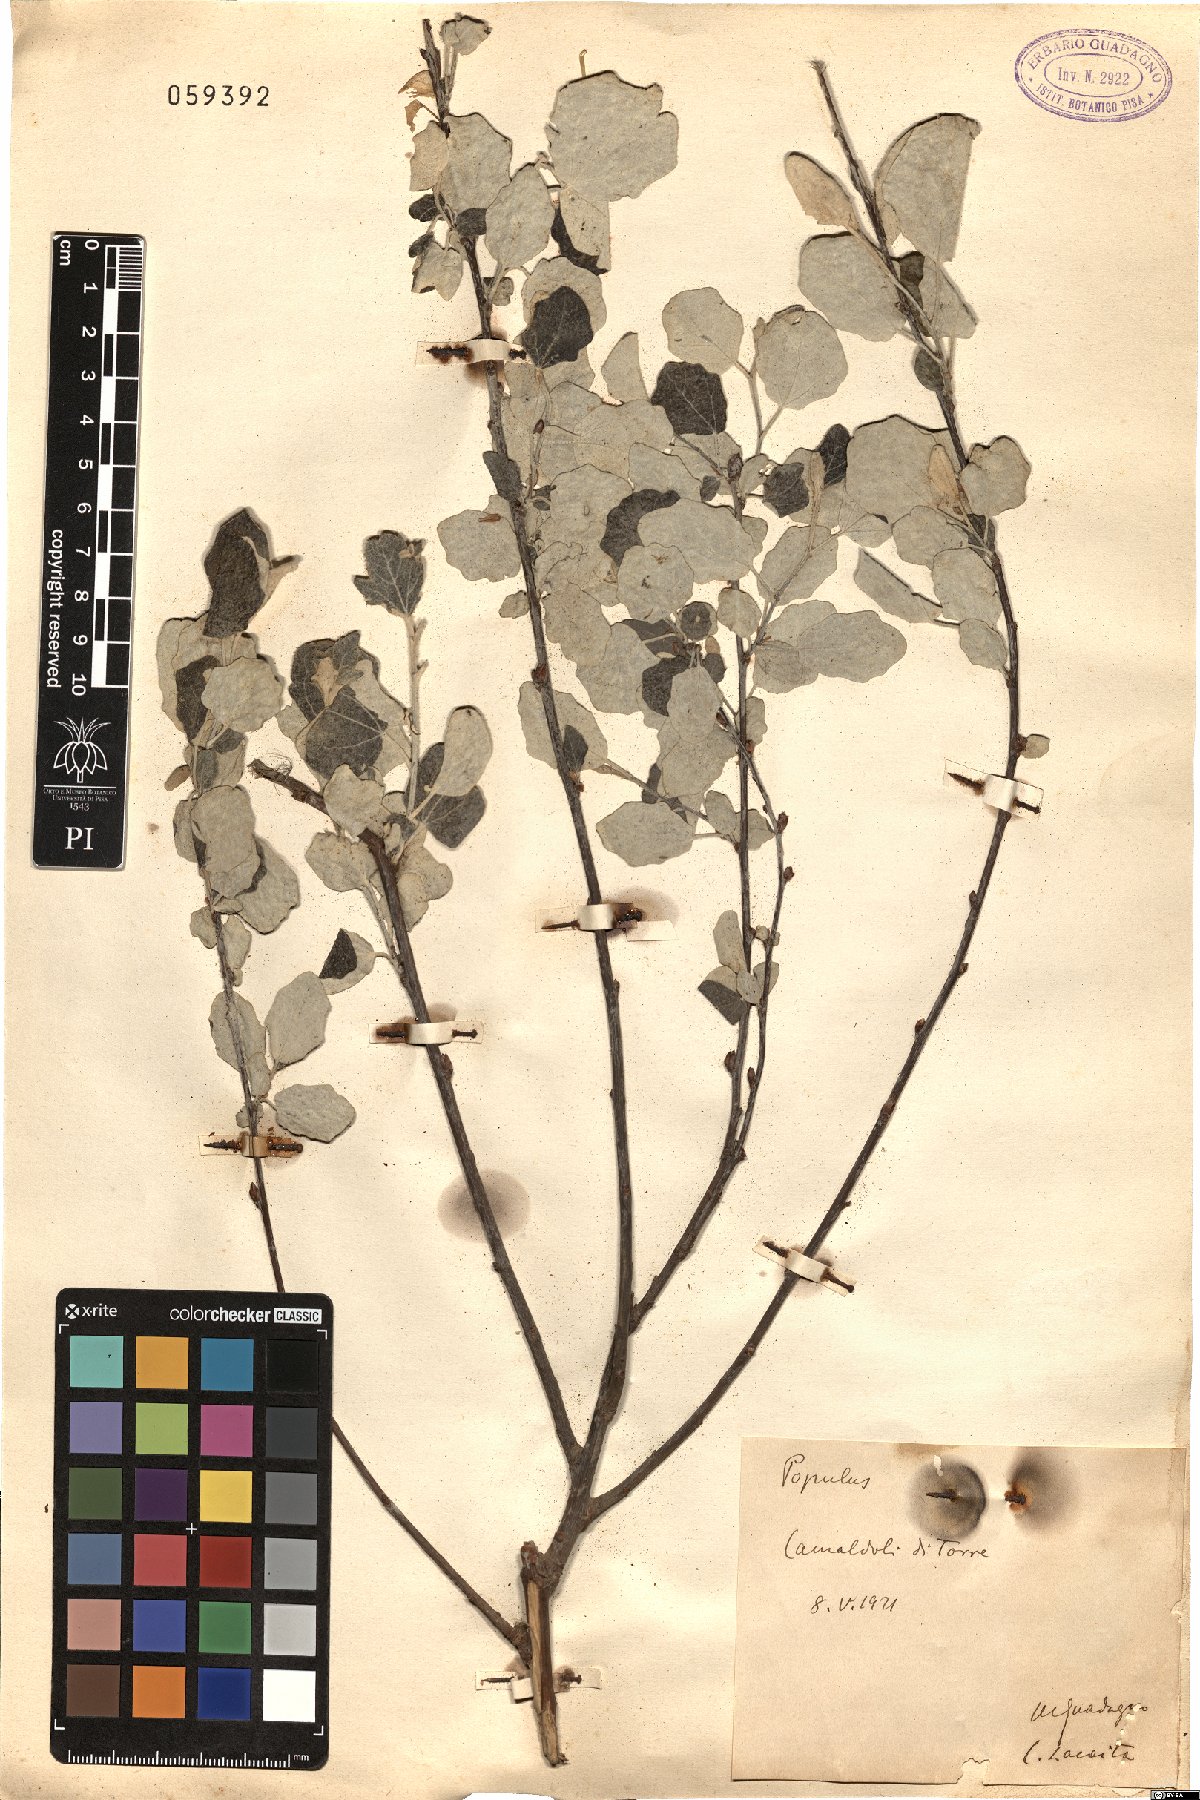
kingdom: Plantae
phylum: Tracheophyta
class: Magnoliopsida
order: Malpighiales
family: Salicaceae
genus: Populus
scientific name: Populus
